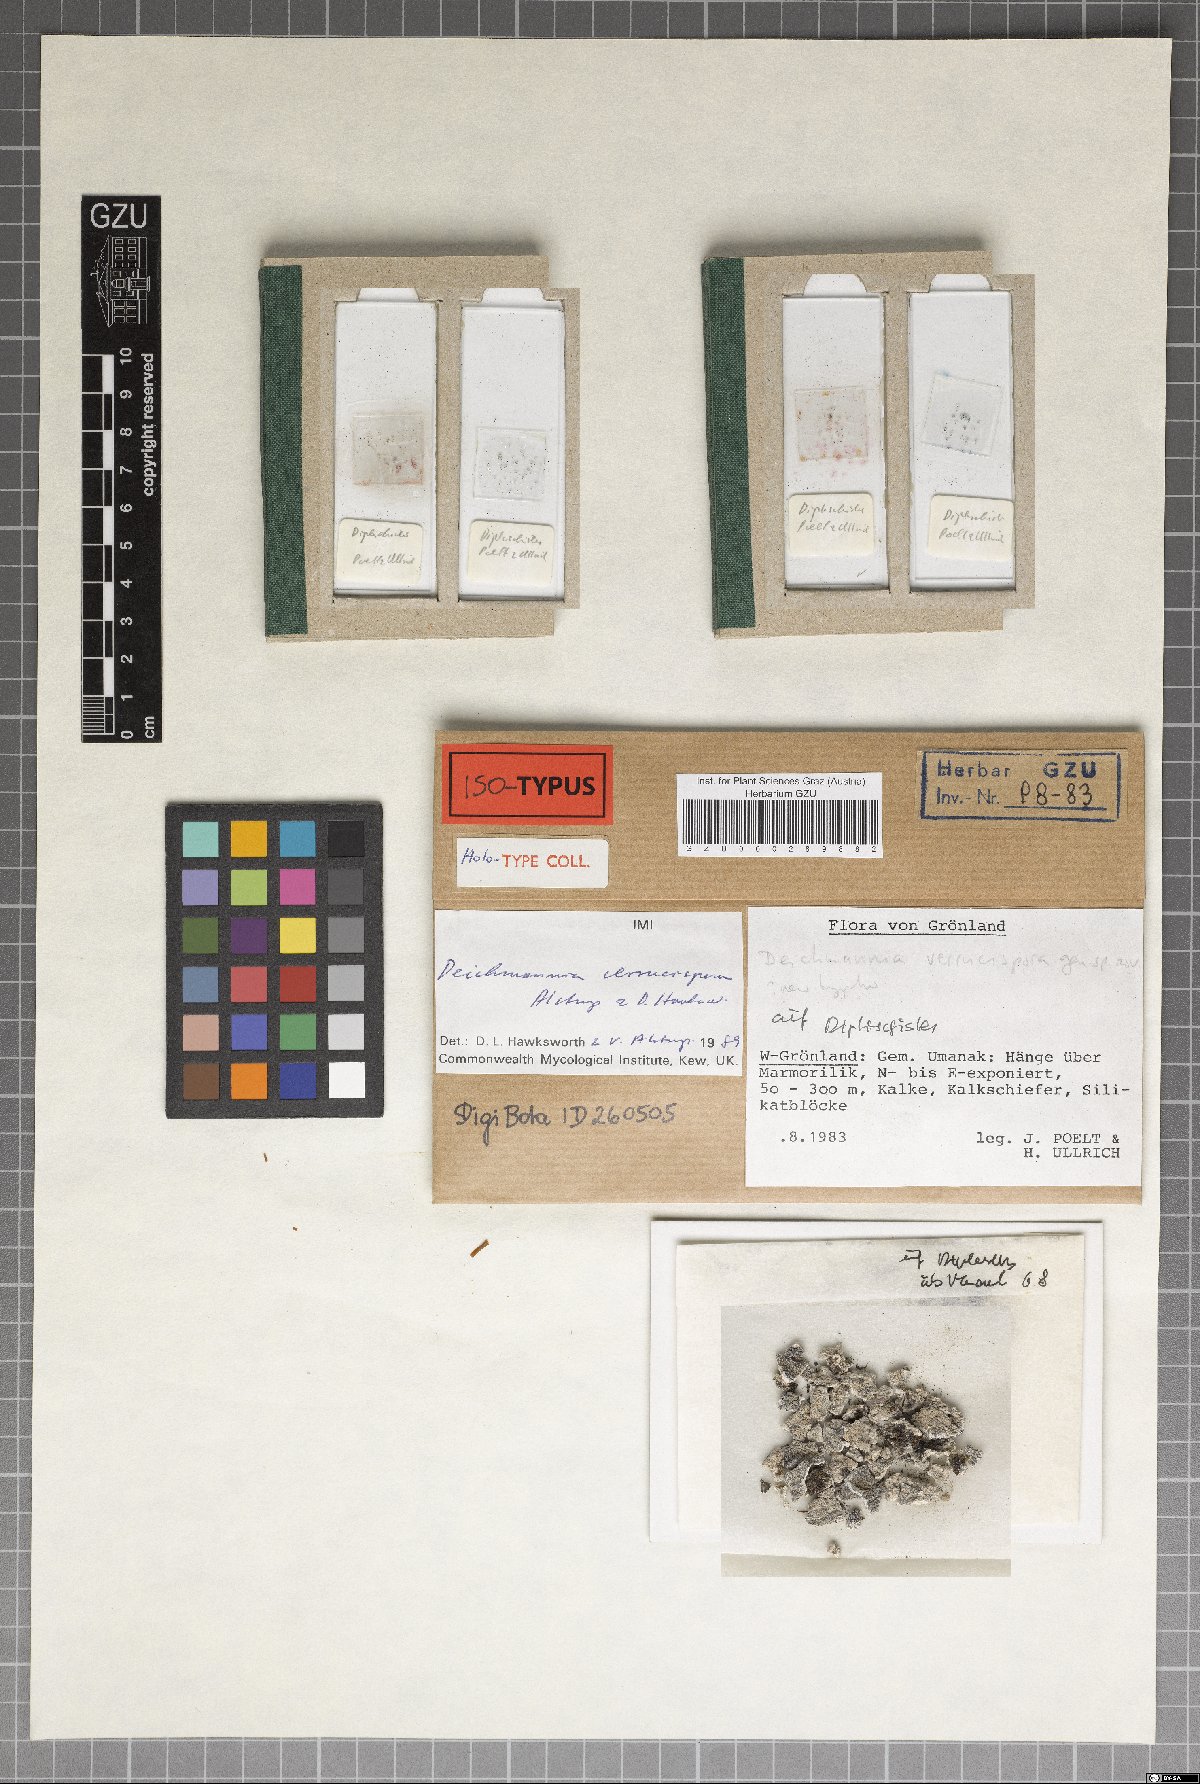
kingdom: Fungi
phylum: Ascomycota
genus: Deichmannia
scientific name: Deichmannia verrucispora
